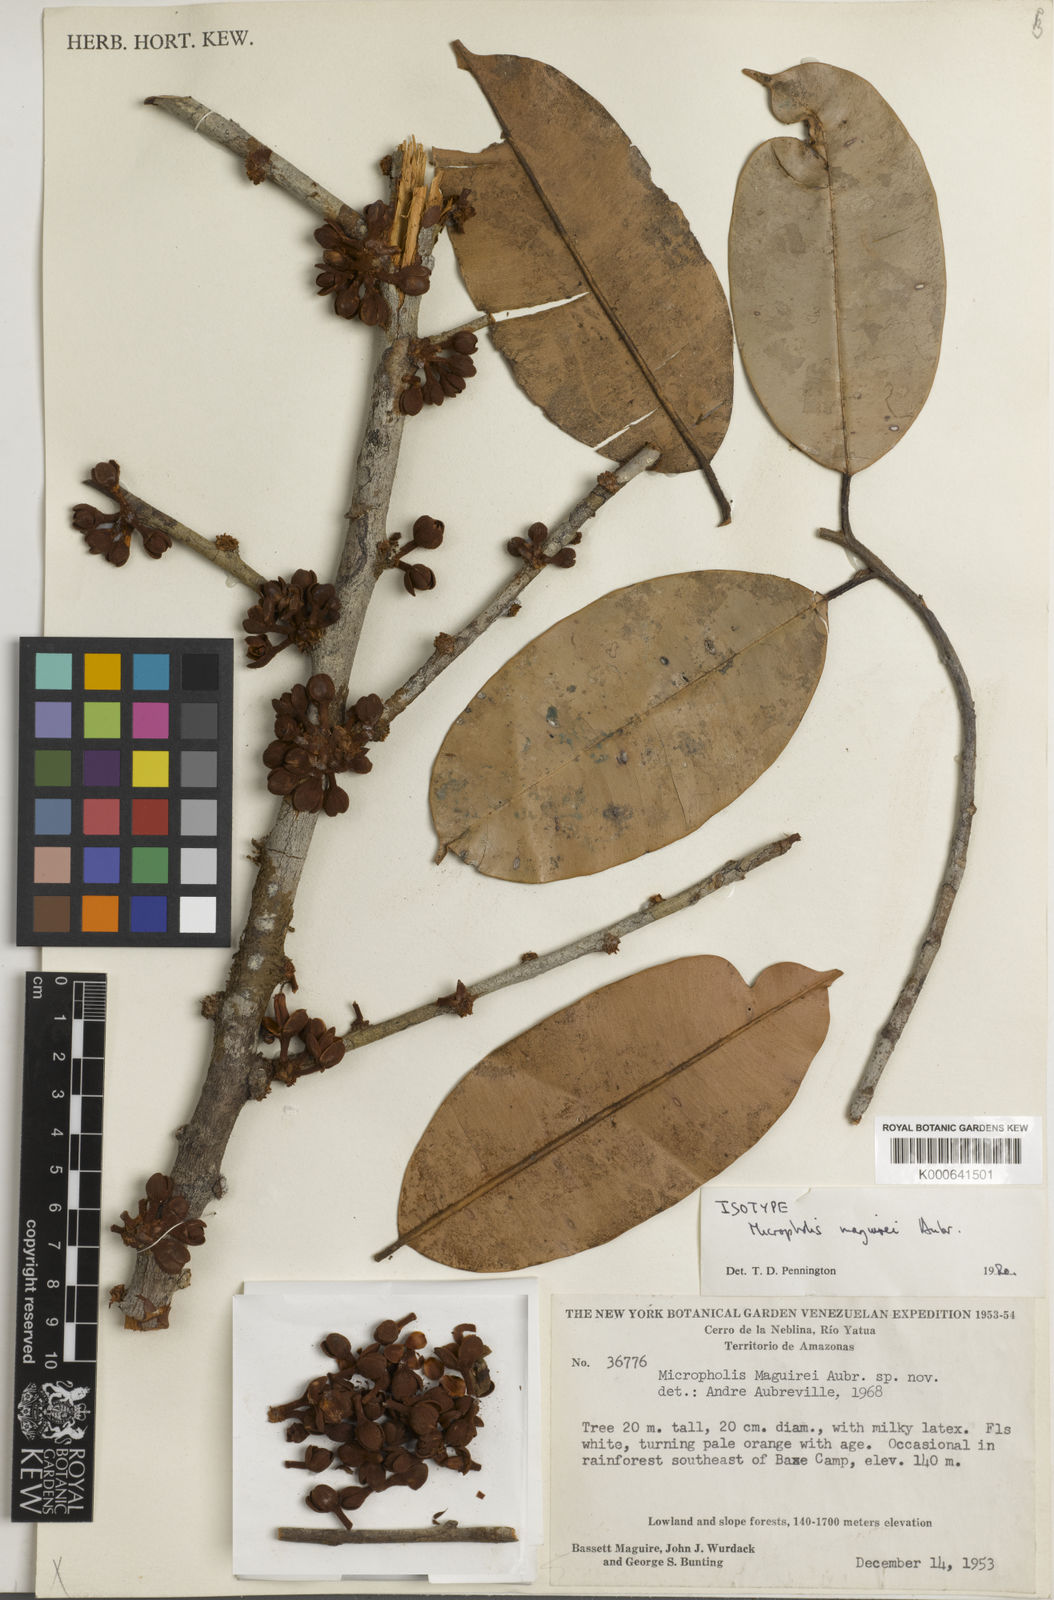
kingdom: Plantae
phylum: Tracheophyta
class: Magnoliopsida
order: Ericales
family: Sapotaceae
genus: Micropholis
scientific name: Micropholis
